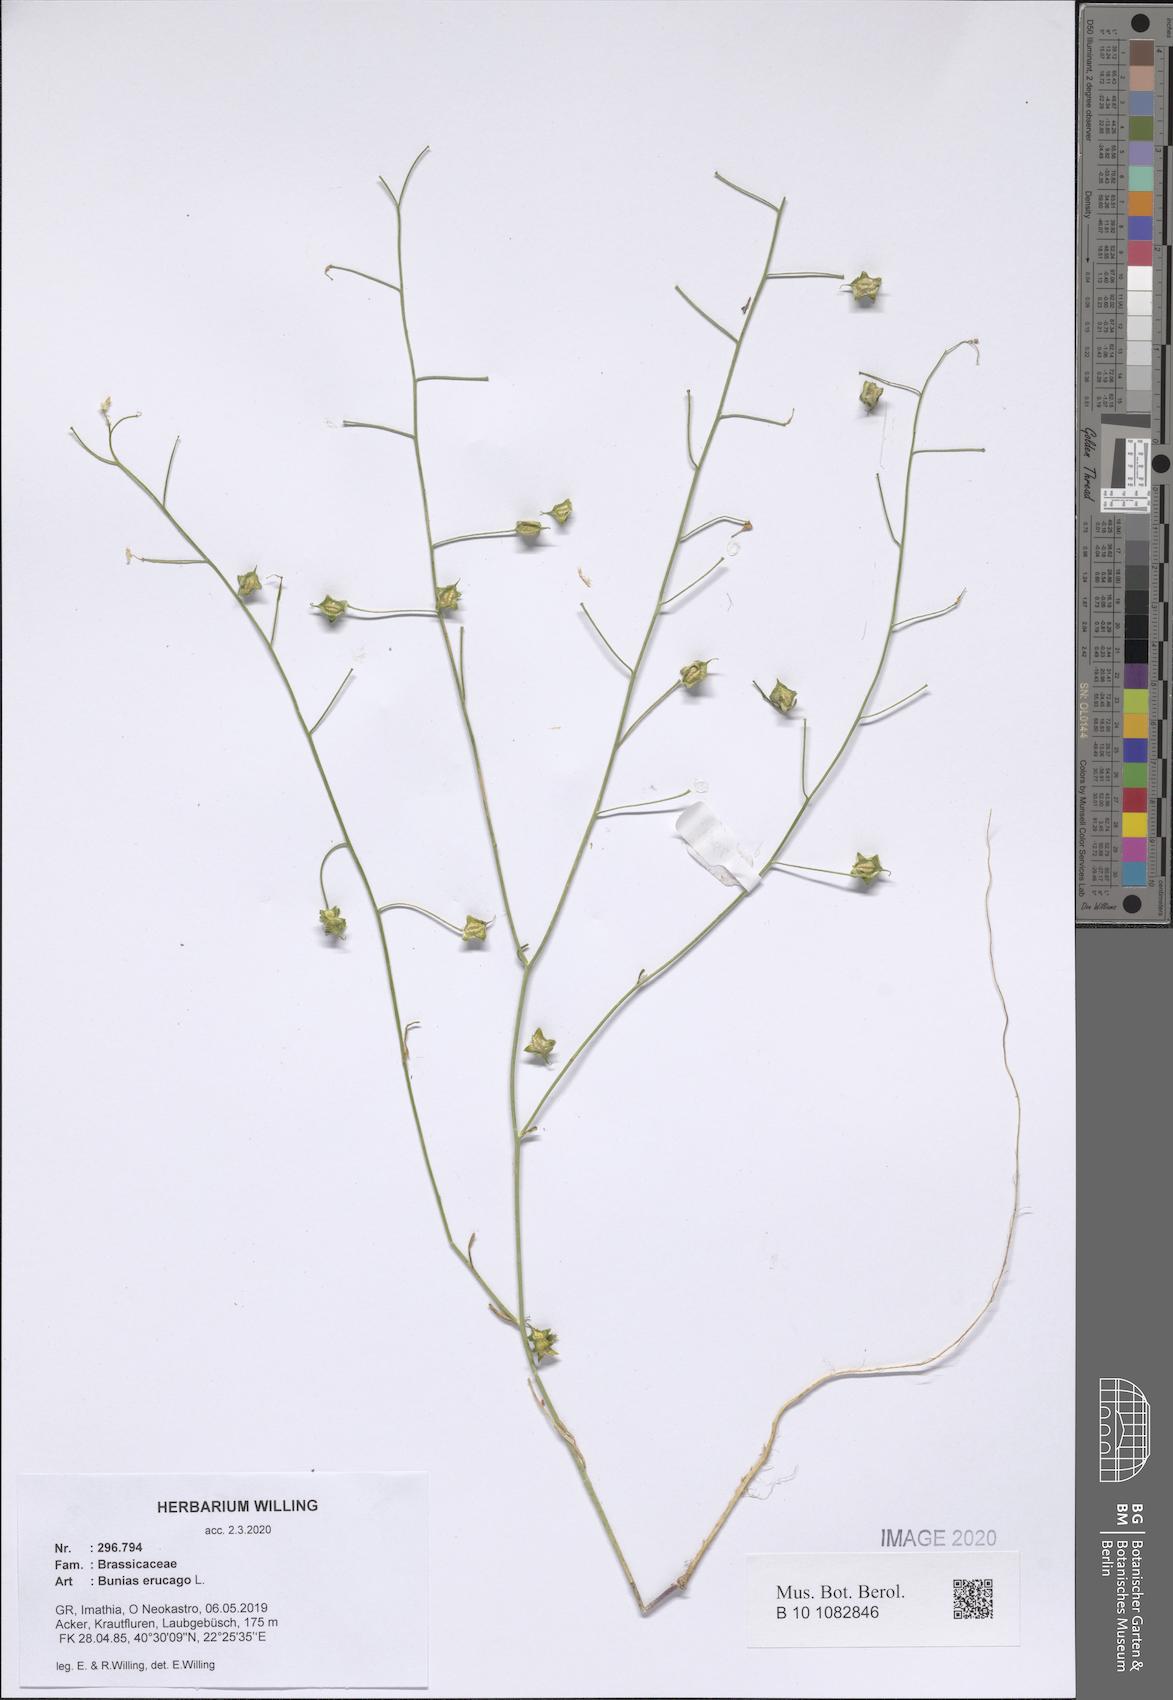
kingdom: Plantae
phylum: Tracheophyta
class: Magnoliopsida
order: Brassicales
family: Brassicaceae
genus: Bunias
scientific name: Bunias erucago
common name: Southern warty-cabbage
